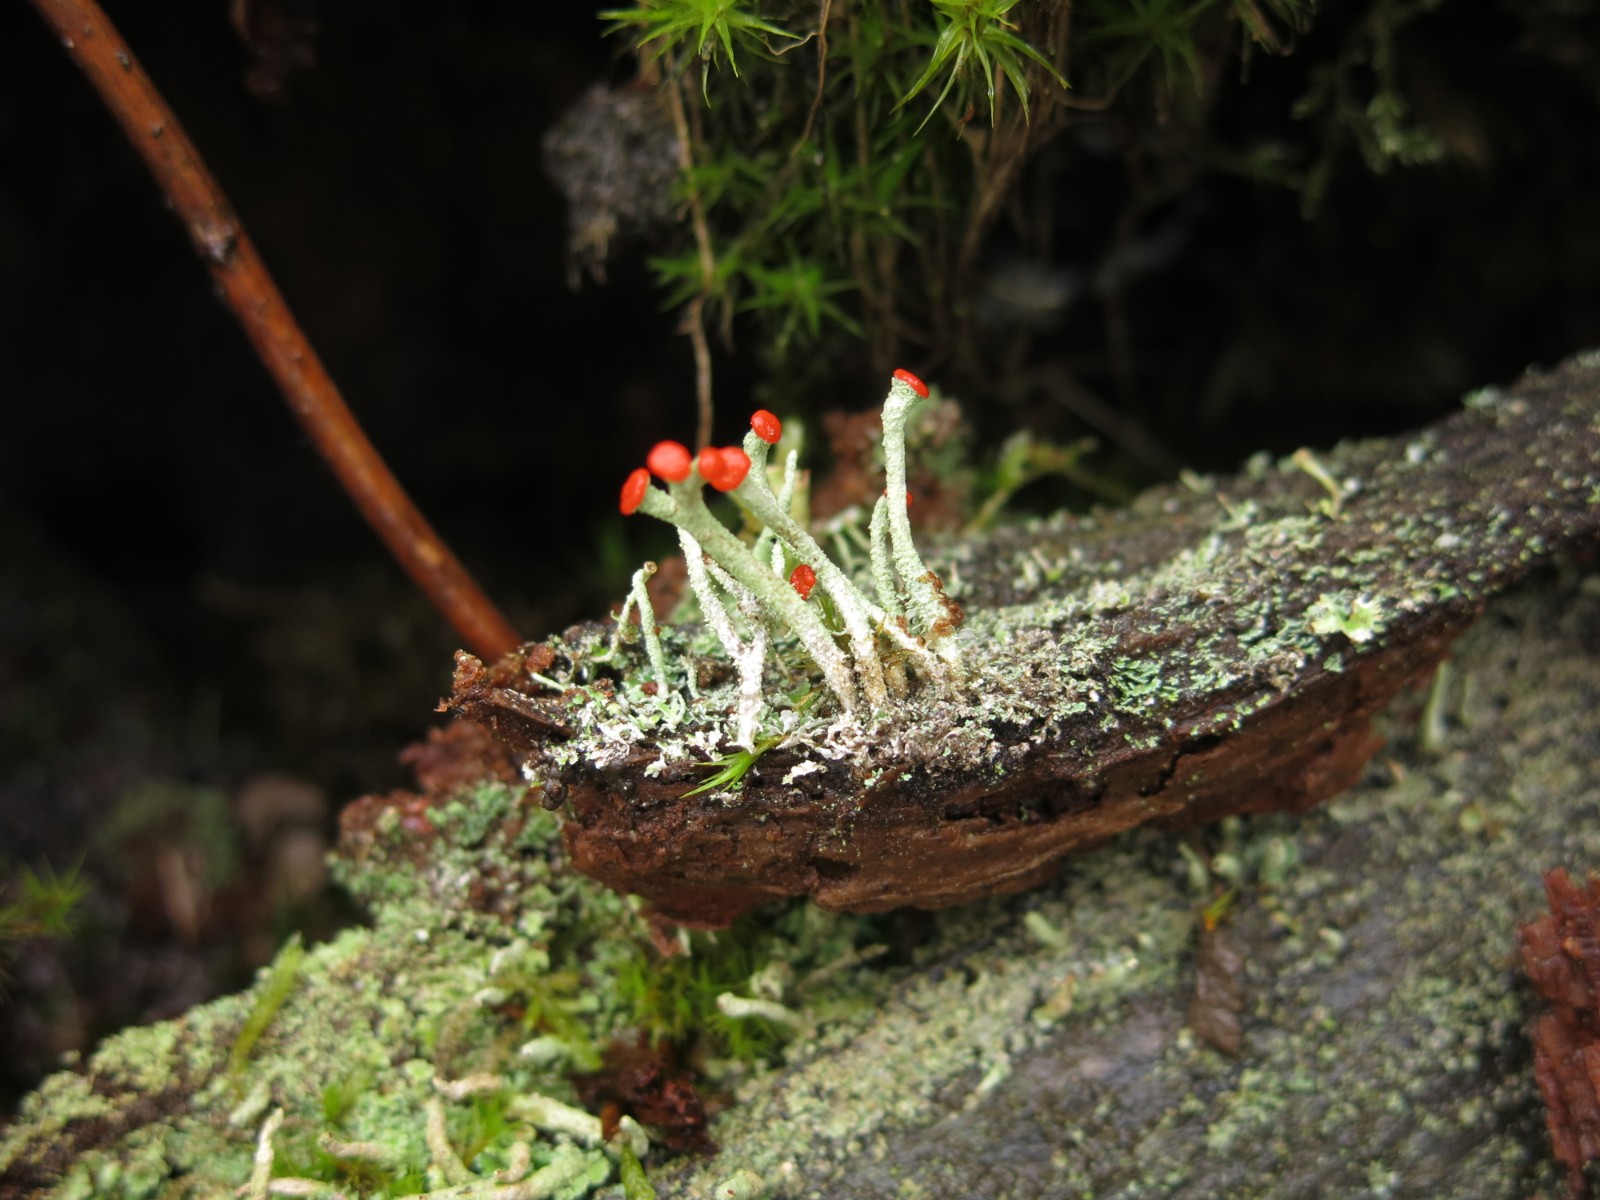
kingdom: Fungi
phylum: Ascomycota
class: Lecanoromycetes
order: Lecanorales
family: Cladoniaceae
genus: Cladonia
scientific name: Cladonia macilenta
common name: indsvunden bægerlav
